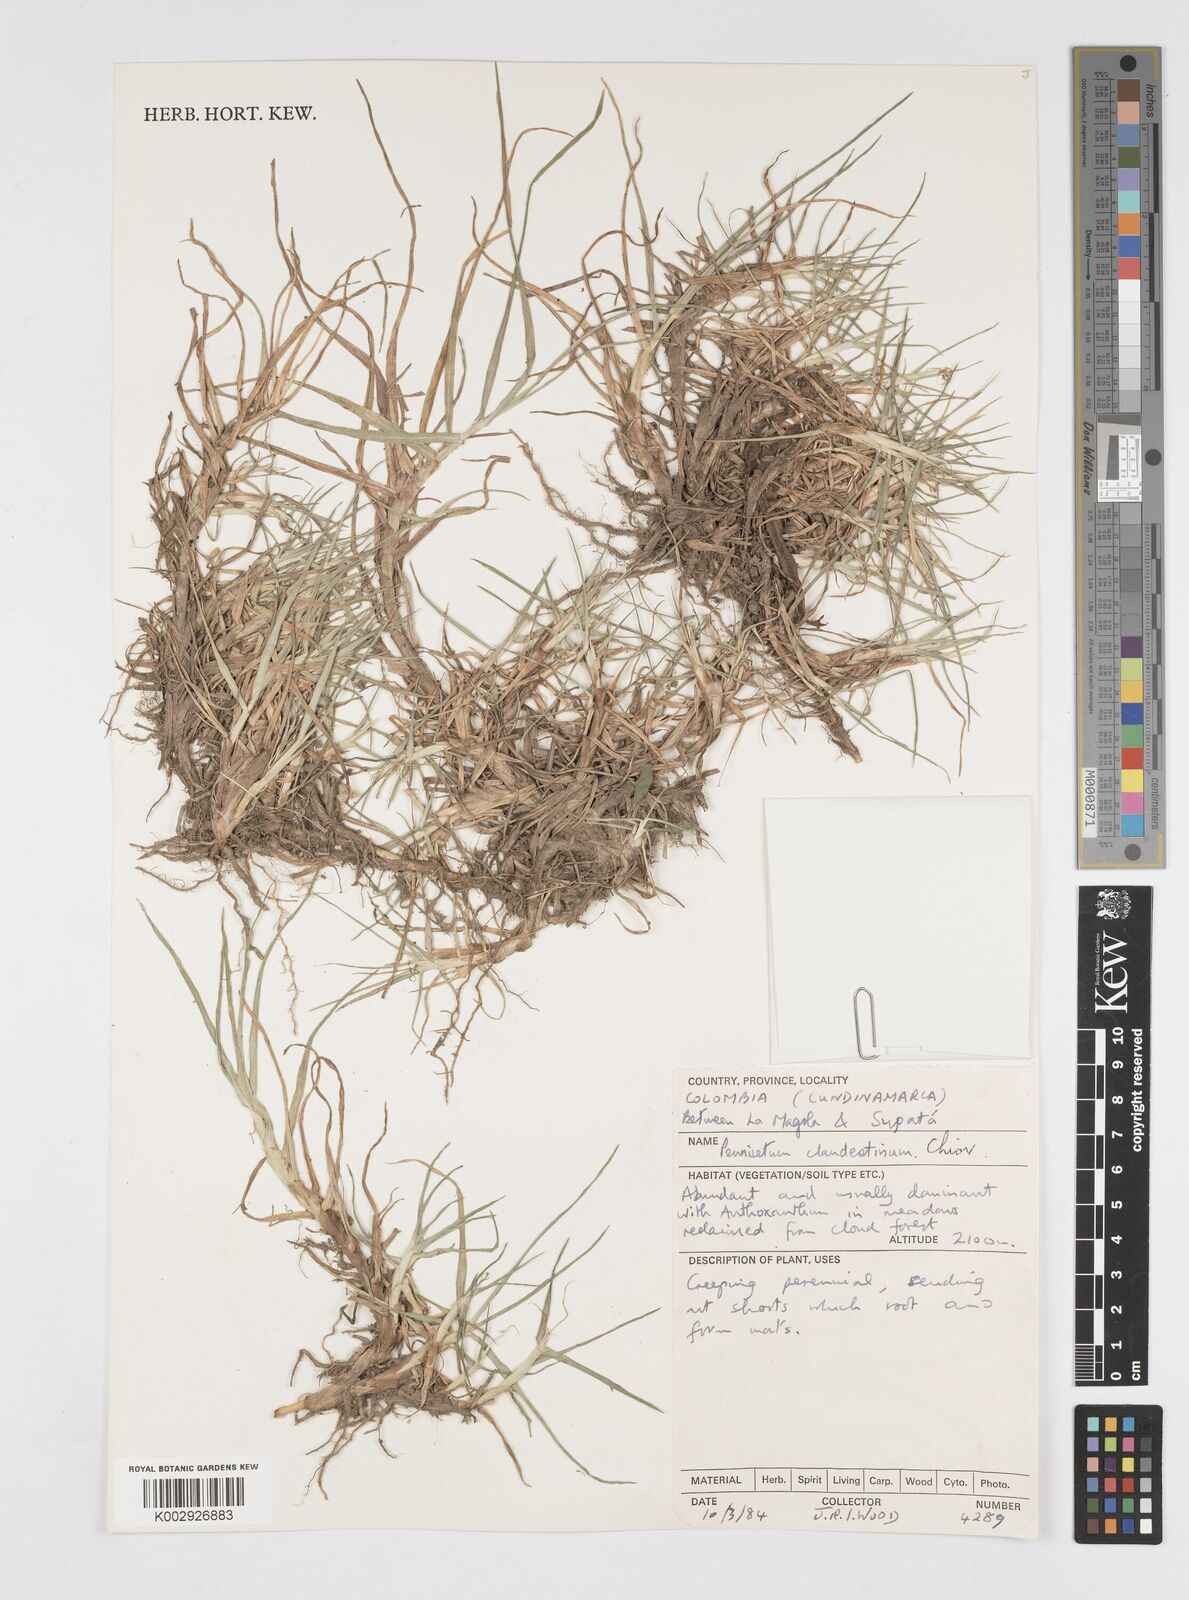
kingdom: Plantae
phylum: Tracheophyta
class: Liliopsida
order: Poales
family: Poaceae
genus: Cenchrus
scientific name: Cenchrus clandestinus
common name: Kikuyugrass
